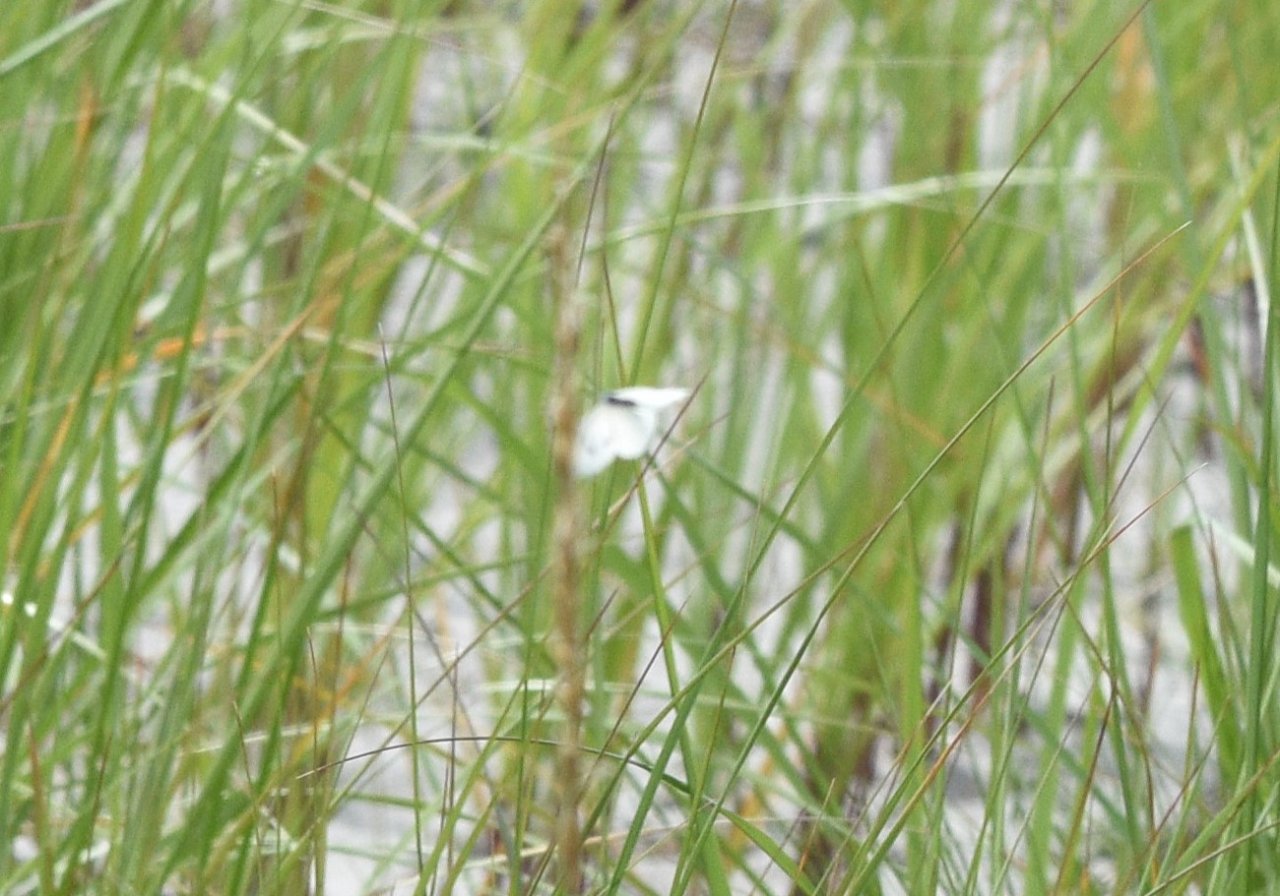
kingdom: Animalia
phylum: Arthropoda
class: Insecta
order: Lepidoptera
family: Pieridae
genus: Pieris
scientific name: Pieris rapae
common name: Cabbage White
